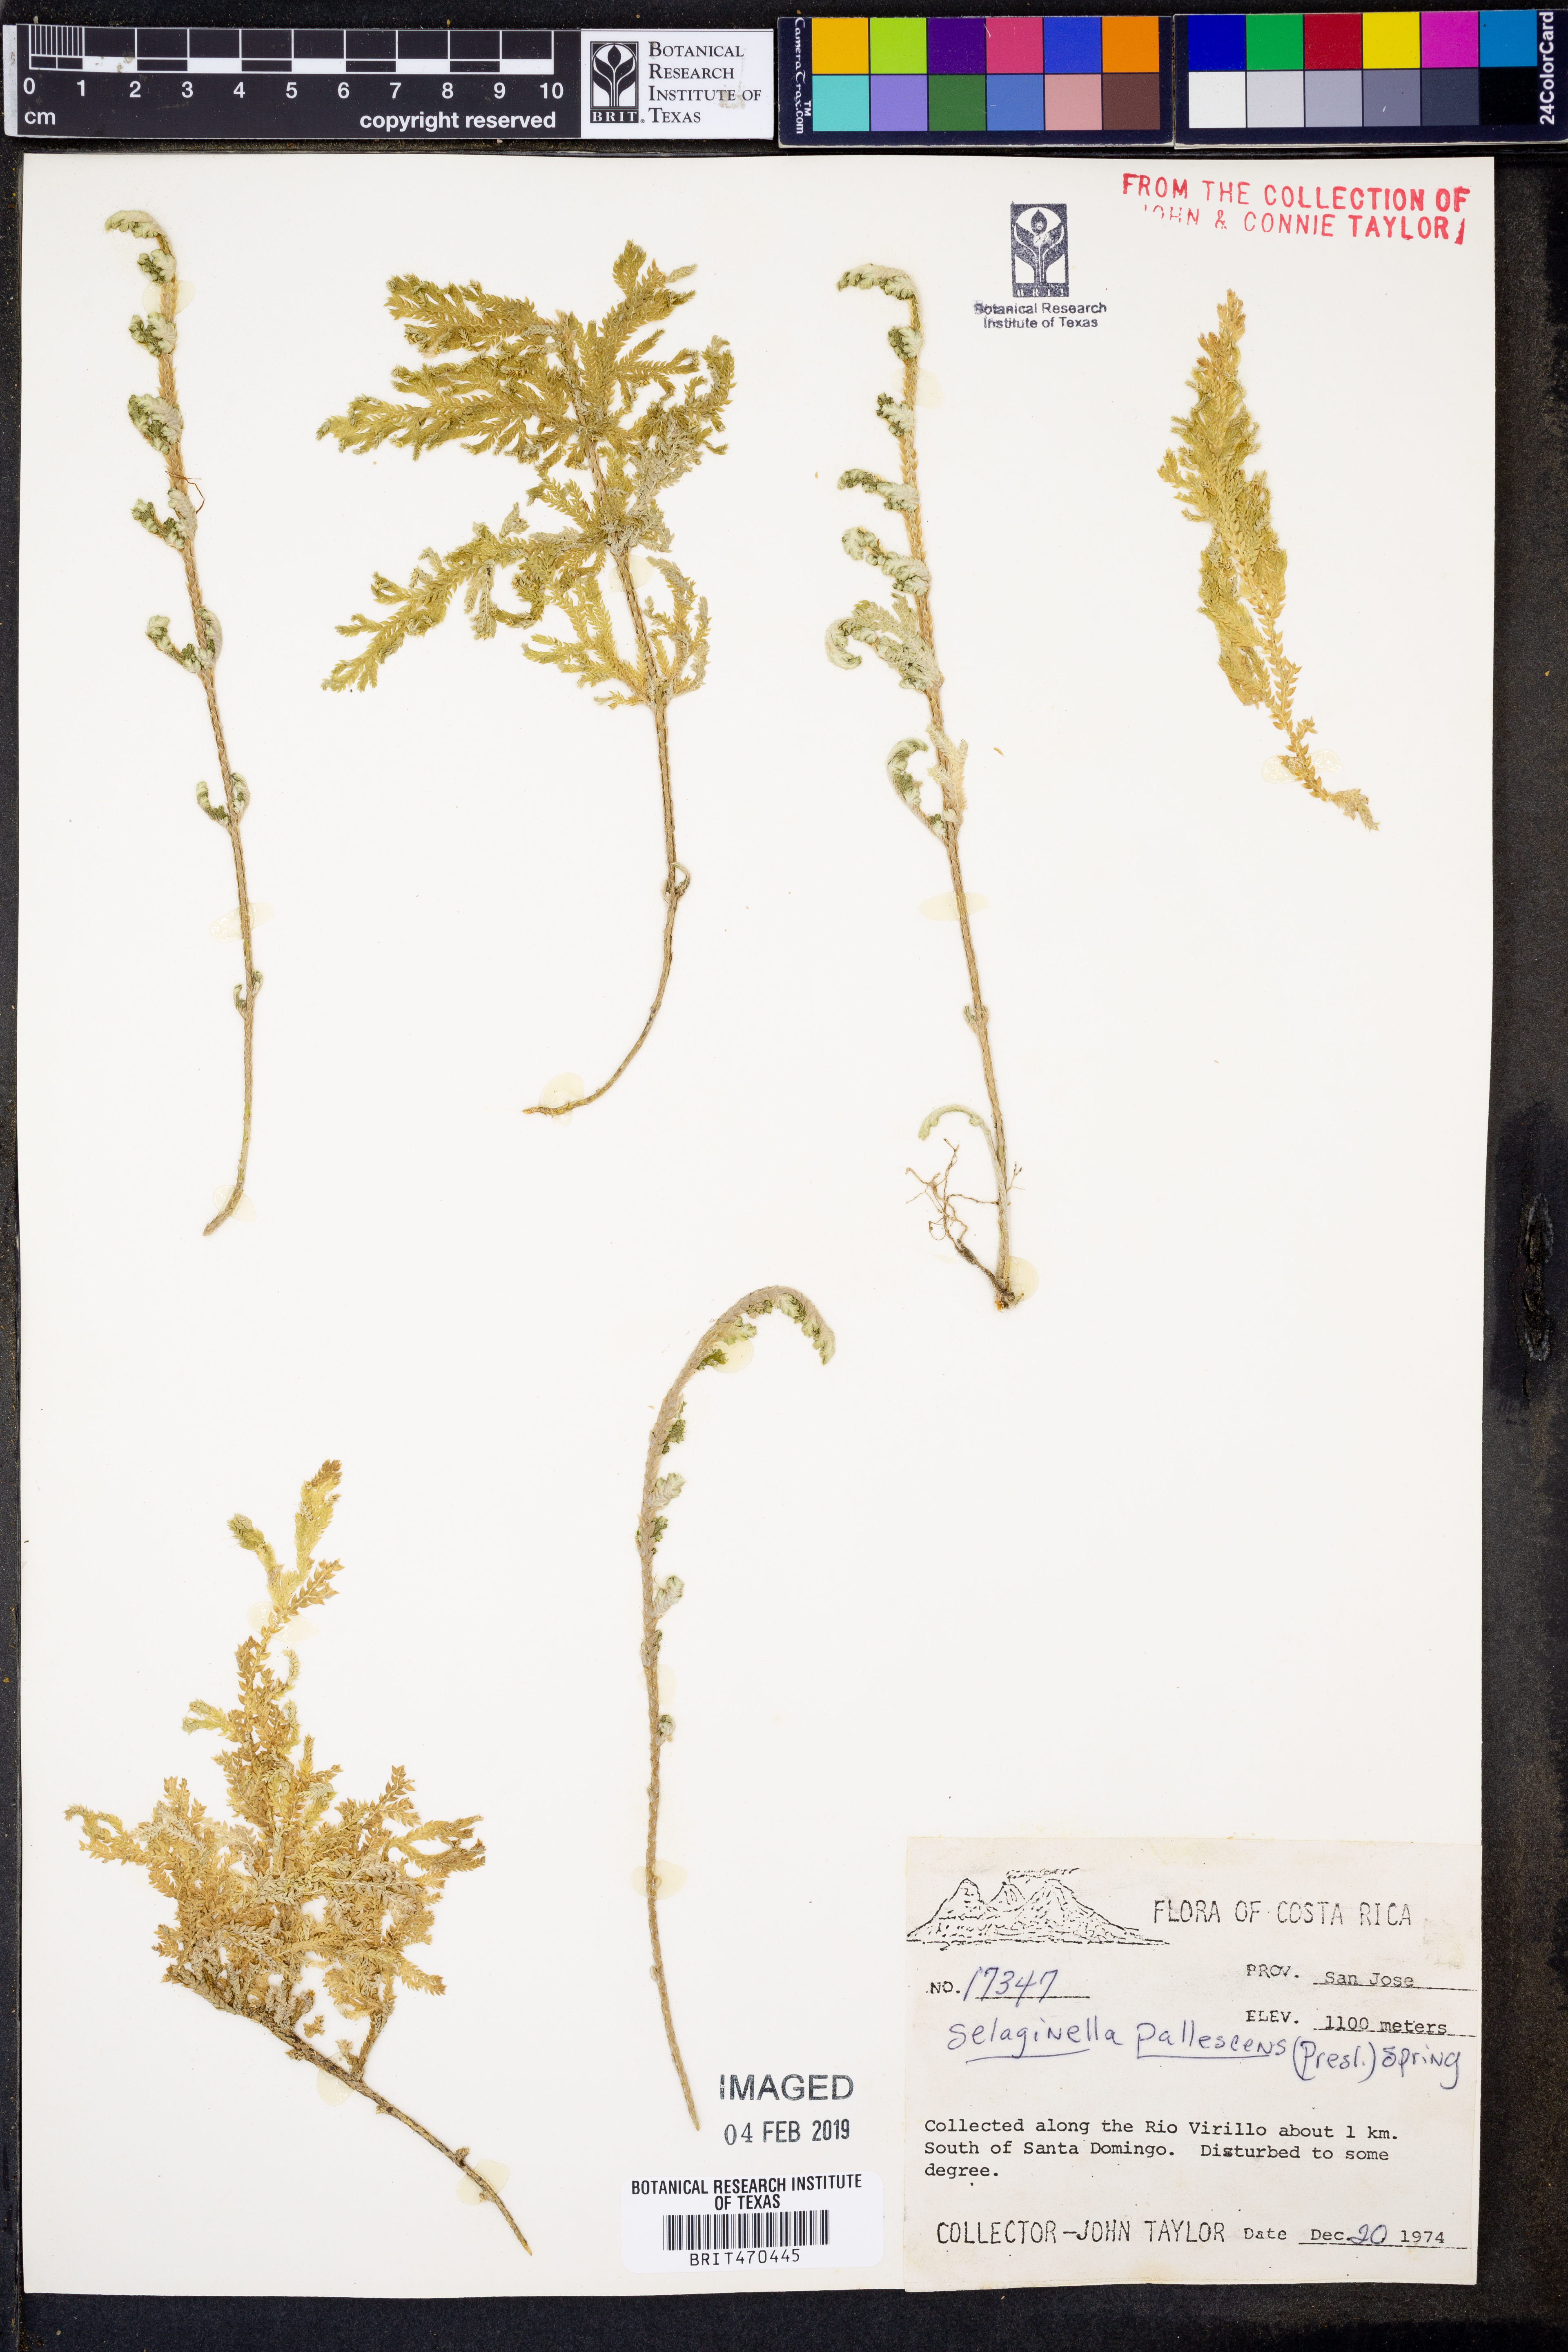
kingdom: Plantae
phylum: Tracheophyta
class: Lycopodiopsida
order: Selaginellales
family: Selaginellaceae
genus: Selaginella
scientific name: Selaginella pallescens
